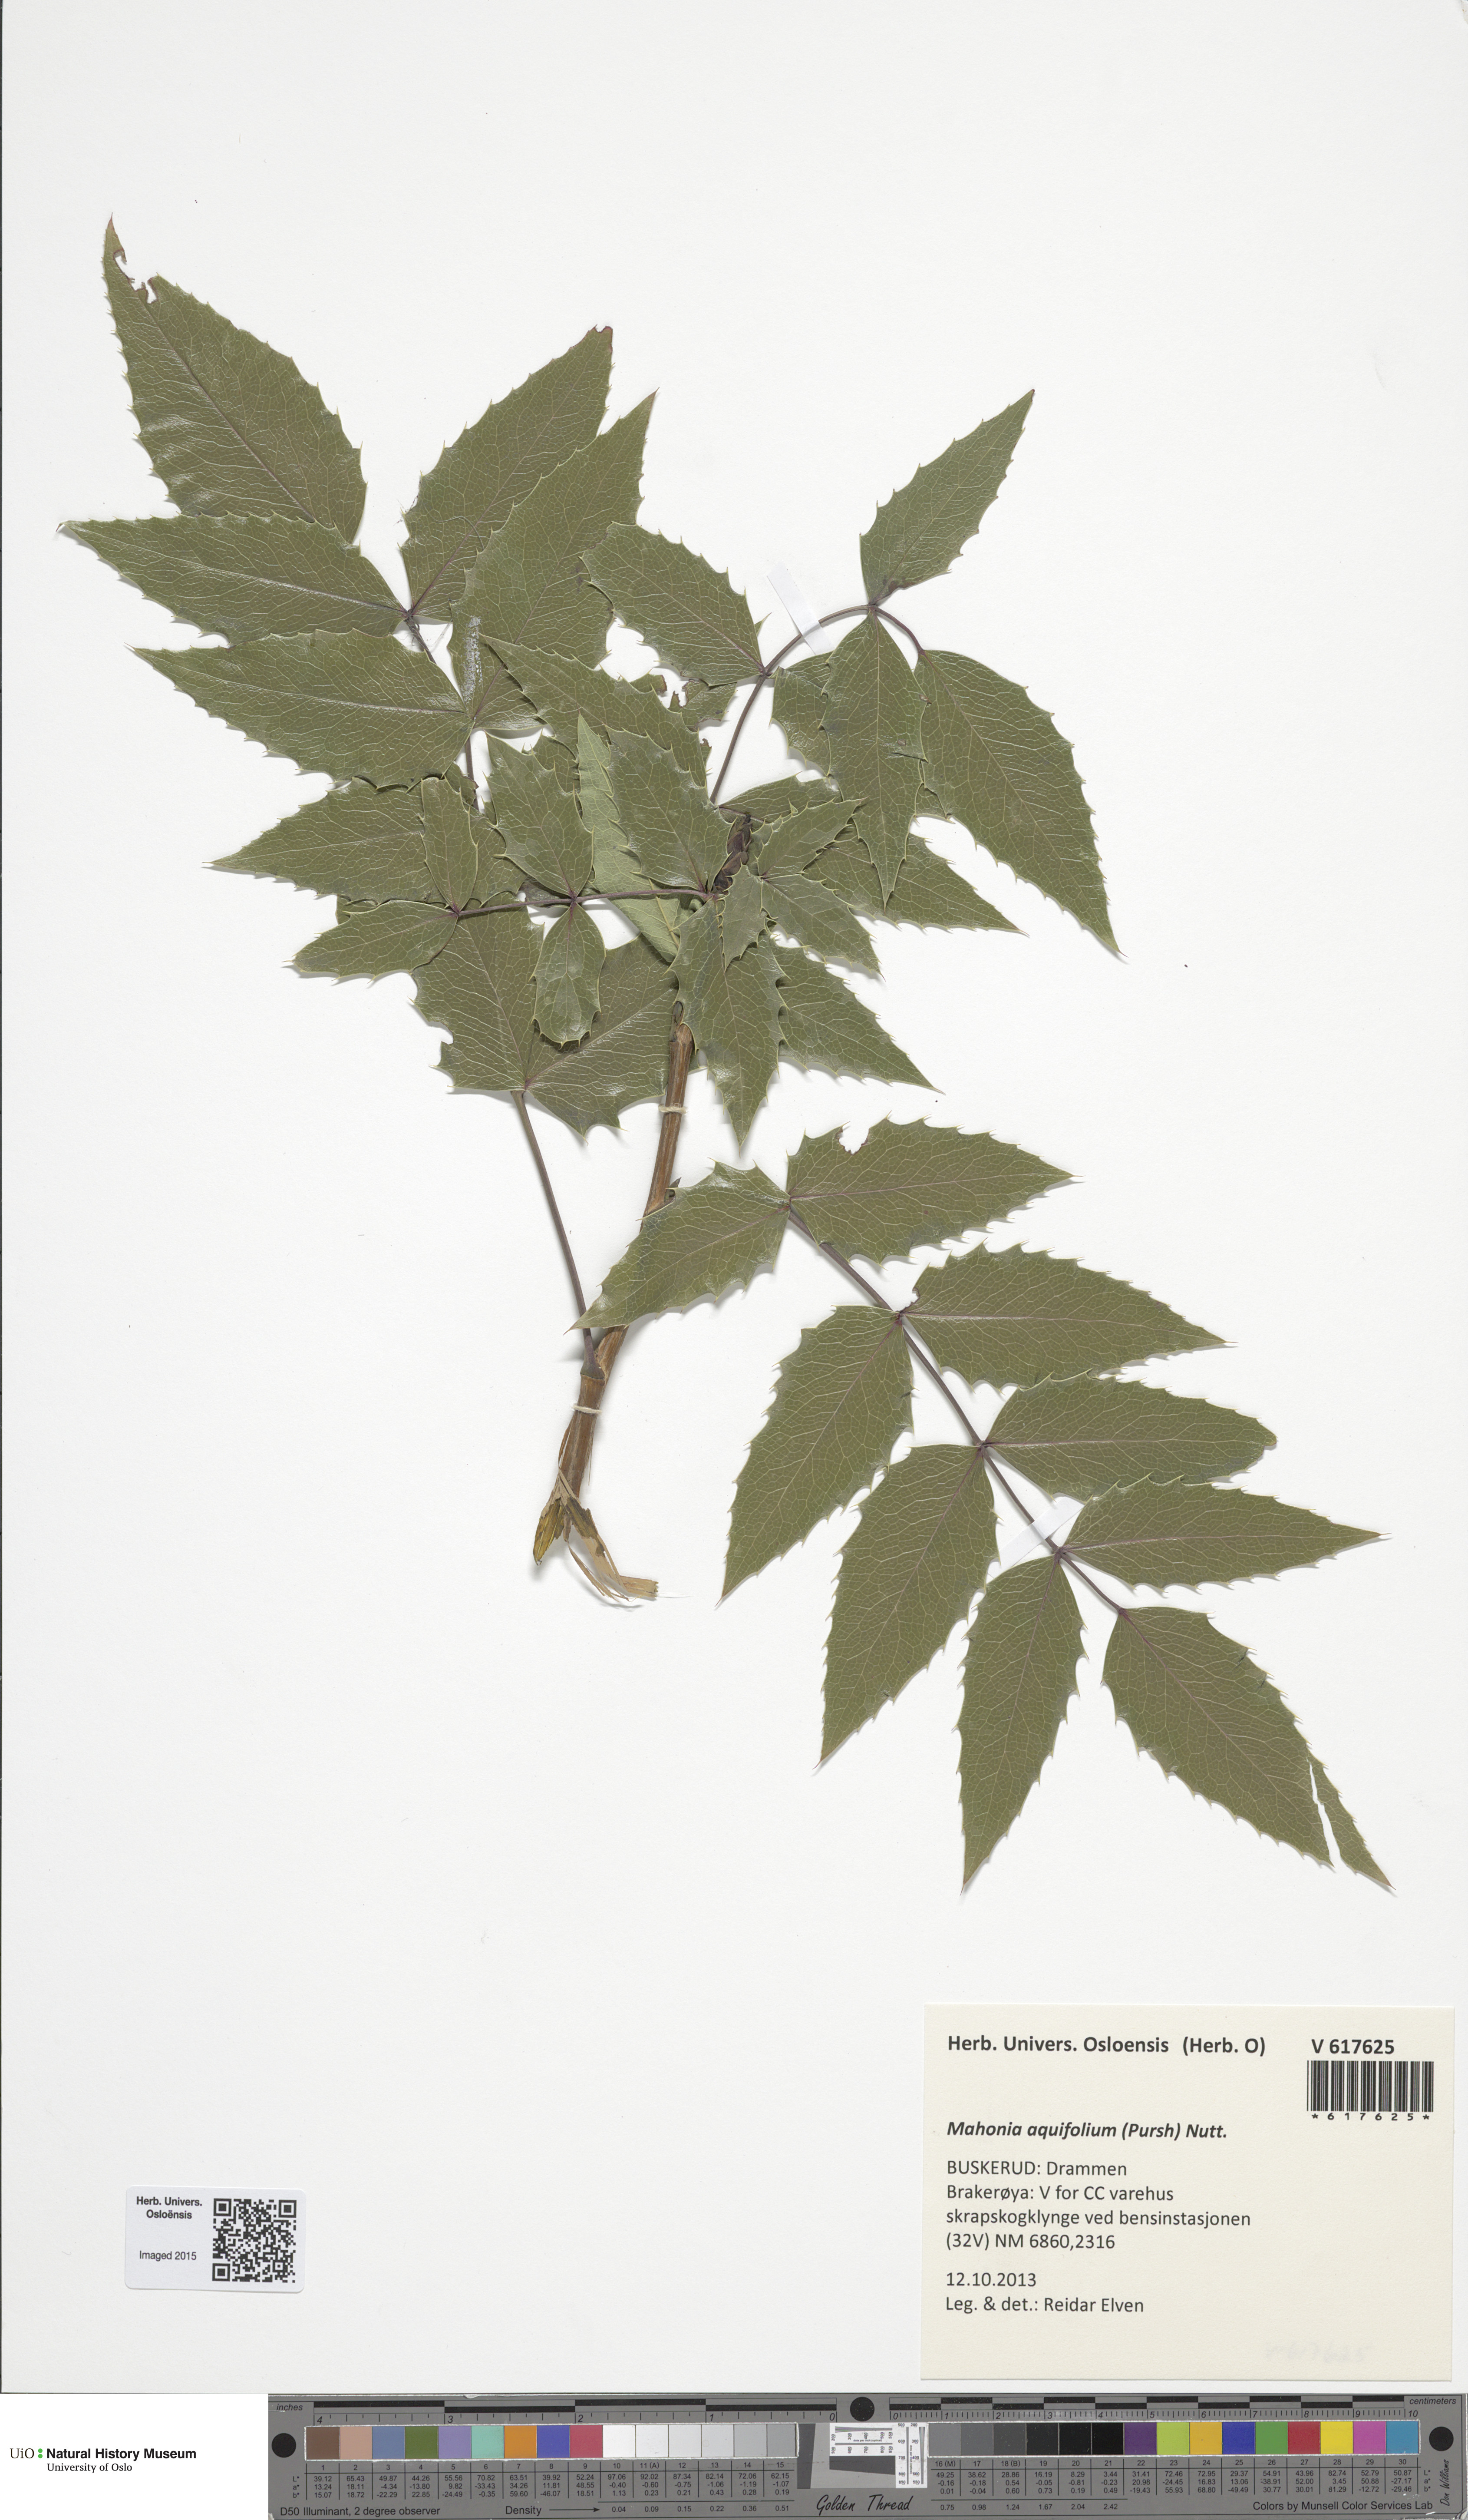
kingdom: Plantae
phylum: Tracheophyta
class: Magnoliopsida
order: Ranunculales
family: Berberidaceae
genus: Mahonia
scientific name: Mahonia aquifolium
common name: Oregon-grape
